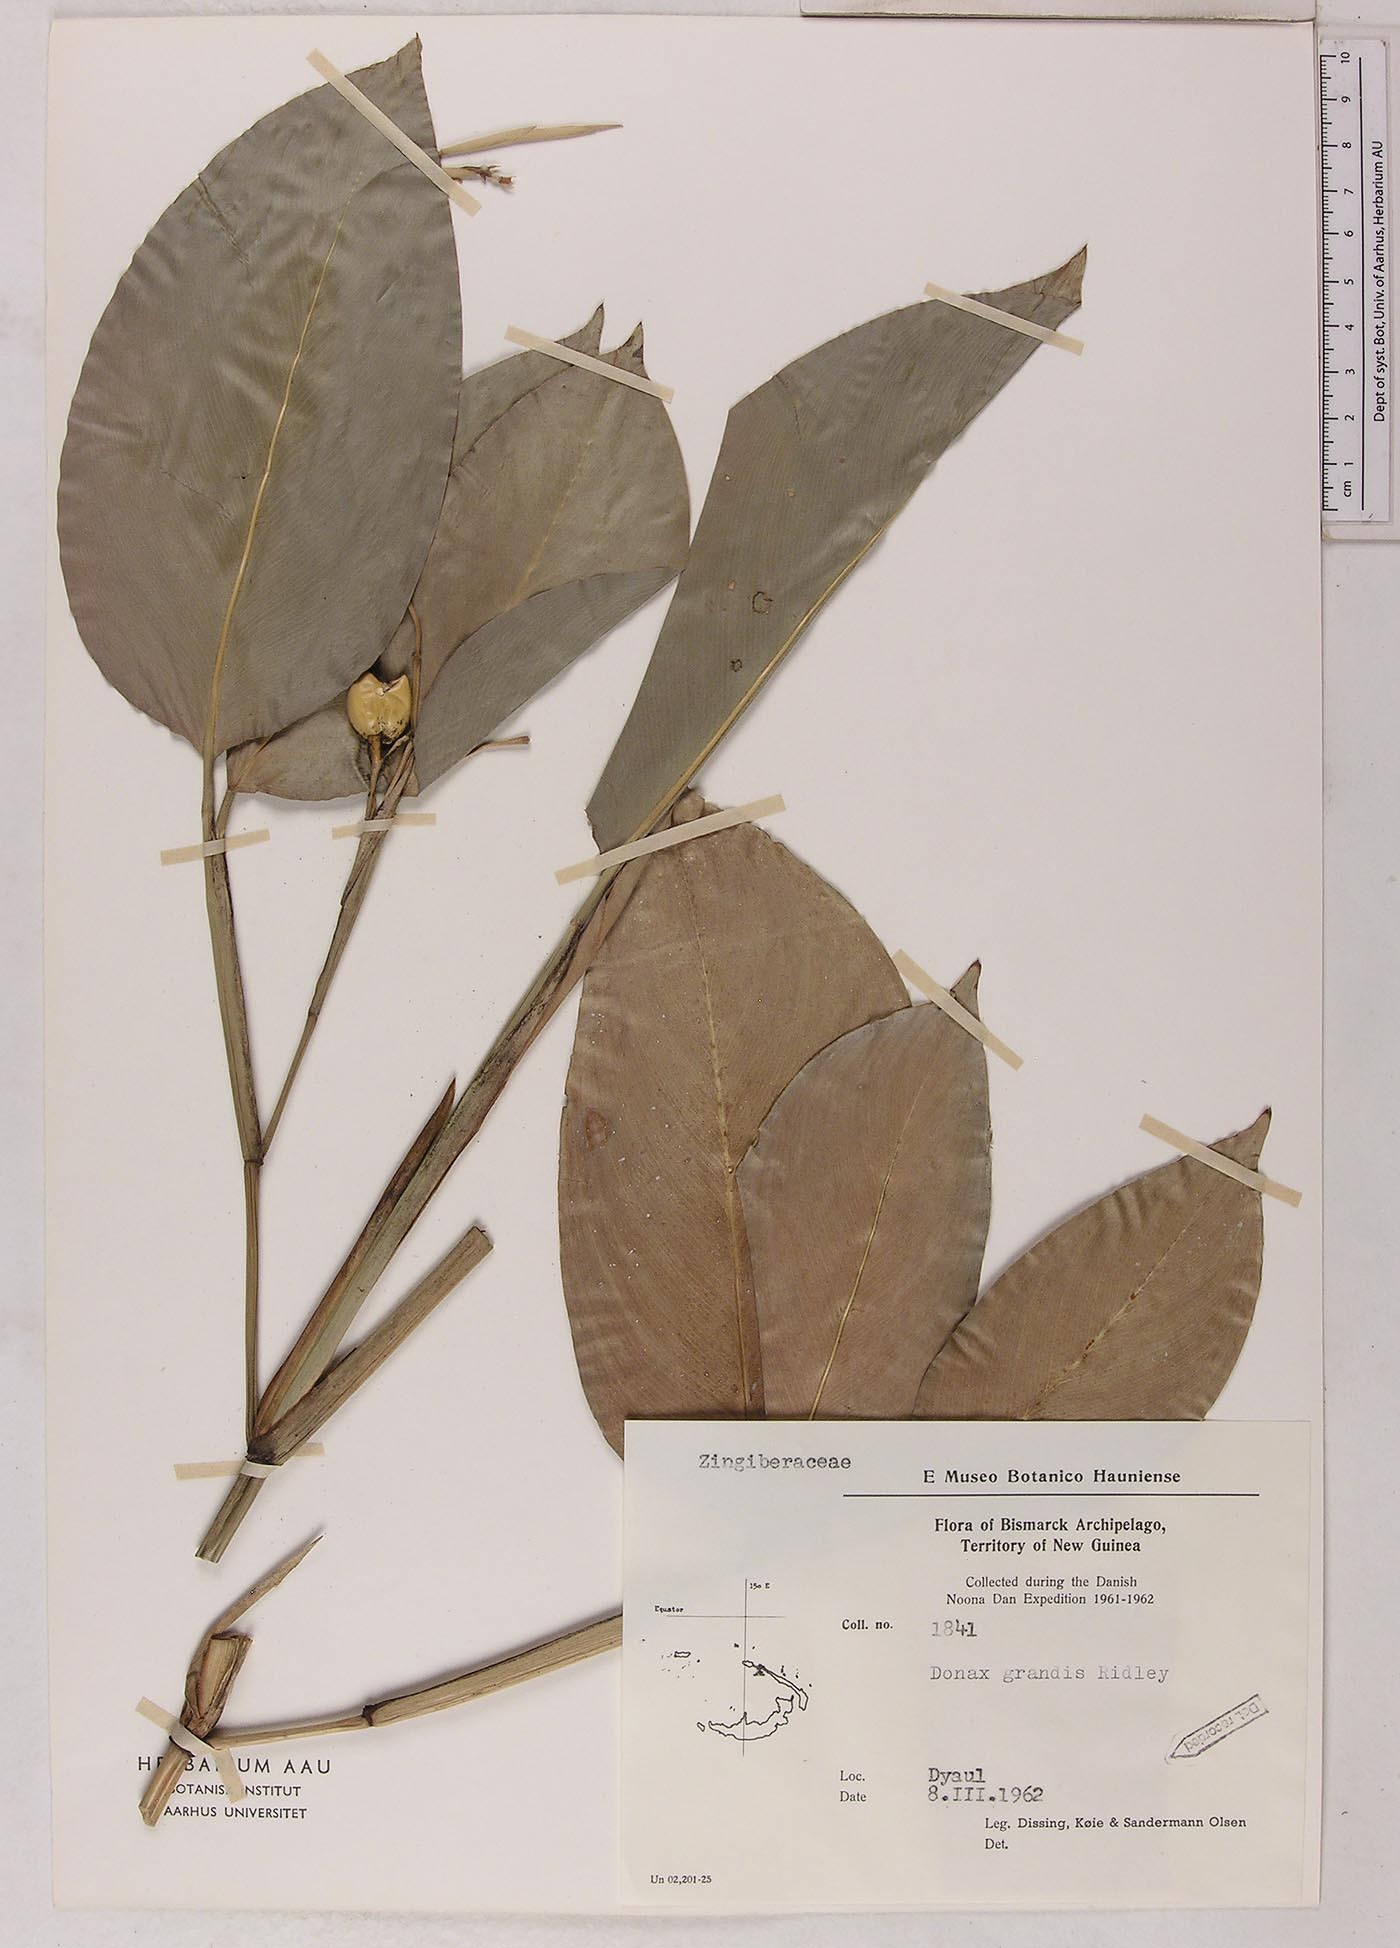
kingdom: Plantae
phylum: Tracheophyta
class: Liliopsida
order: Zingiberales
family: Marantaceae
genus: Donax
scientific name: Donax canniformis
